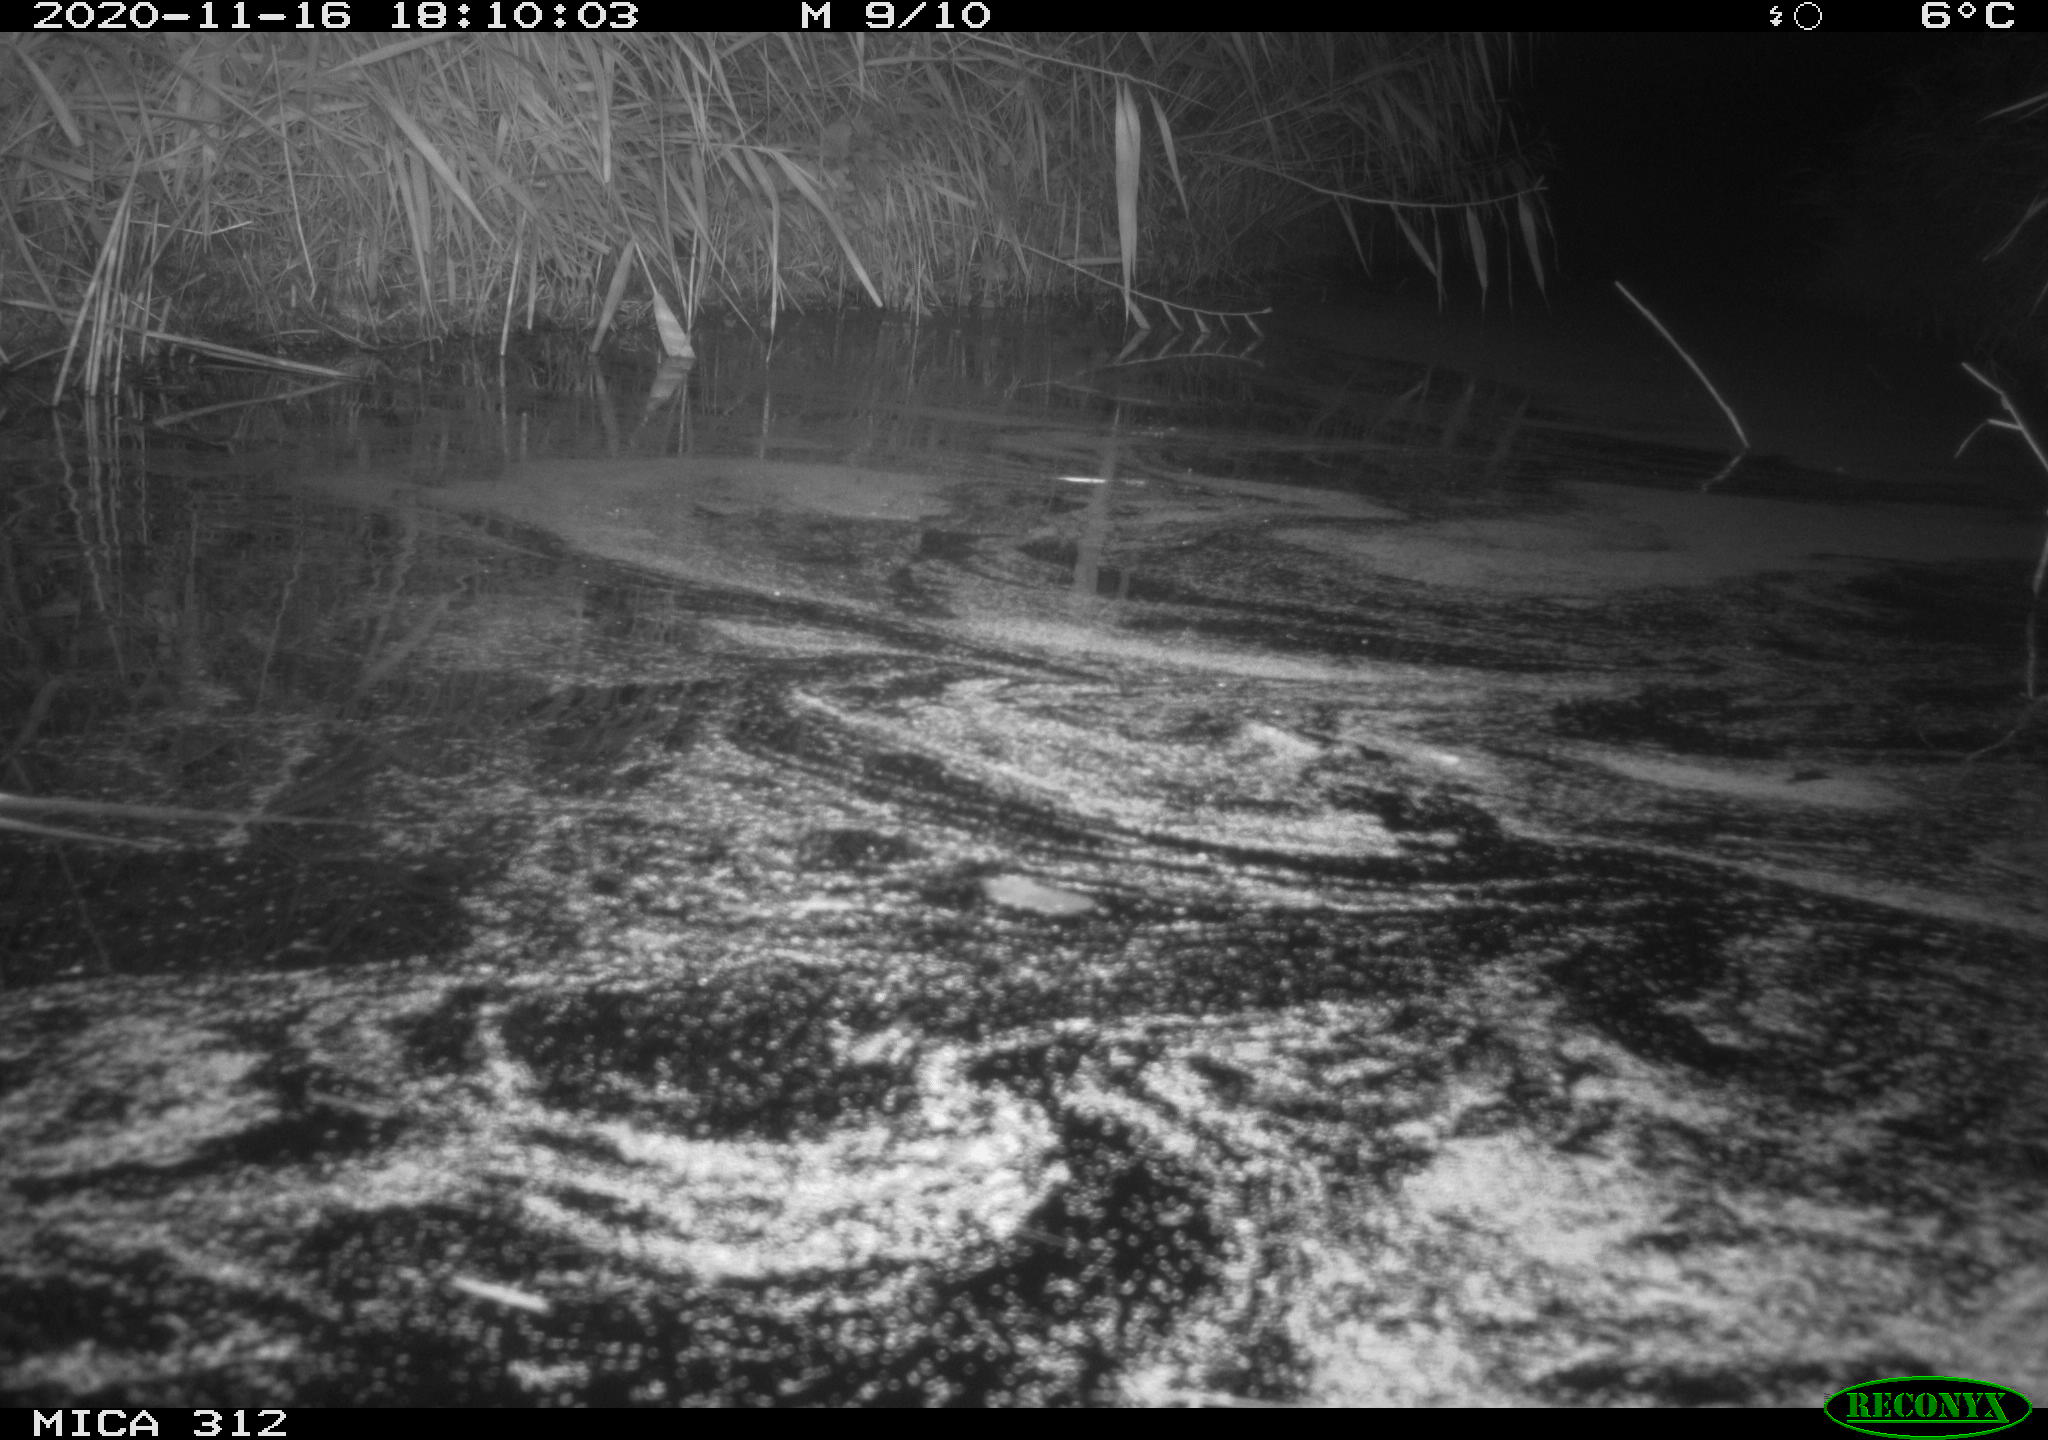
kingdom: Animalia
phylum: Chordata
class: Mammalia
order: Rodentia
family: Muridae
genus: Rattus
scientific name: Rattus norvegicus
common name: Brown rat
